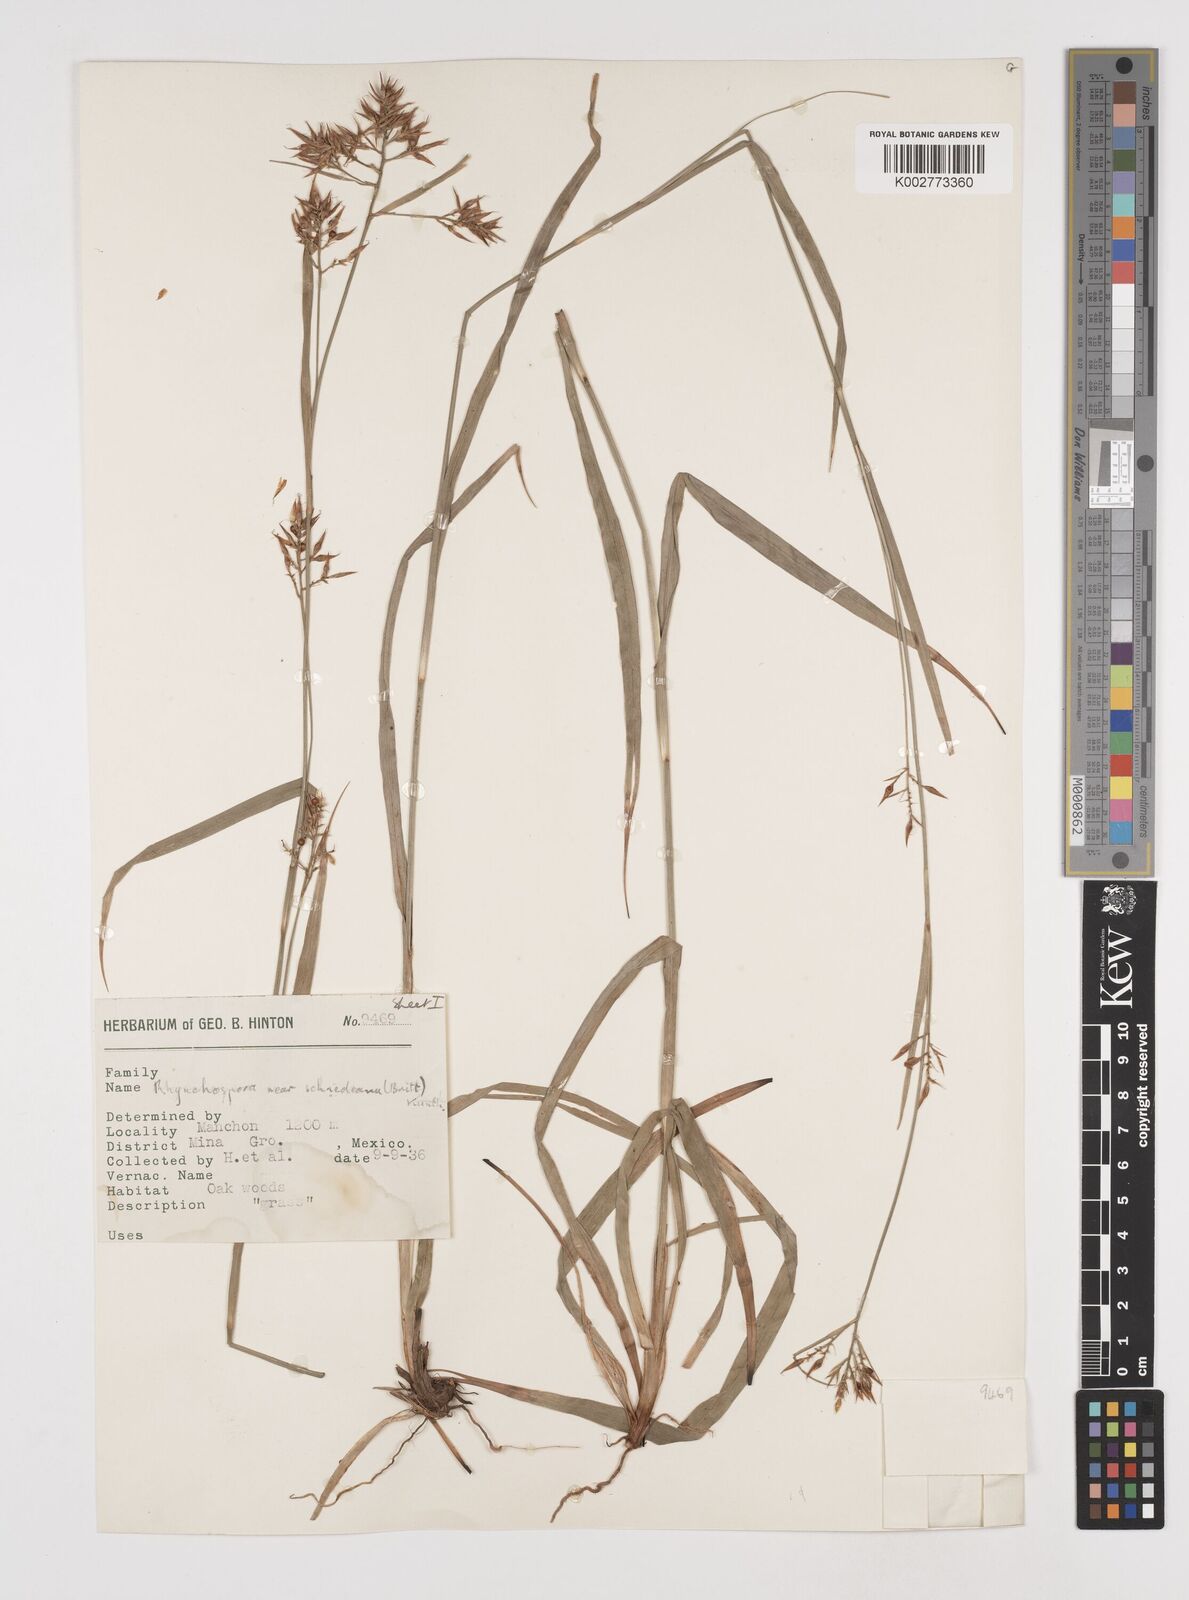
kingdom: Plantae
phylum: Tracheophyta
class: Liliopsida
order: Poales
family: Cyperaceae
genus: Rhynchospora
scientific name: Rhynchospora schiedeana
